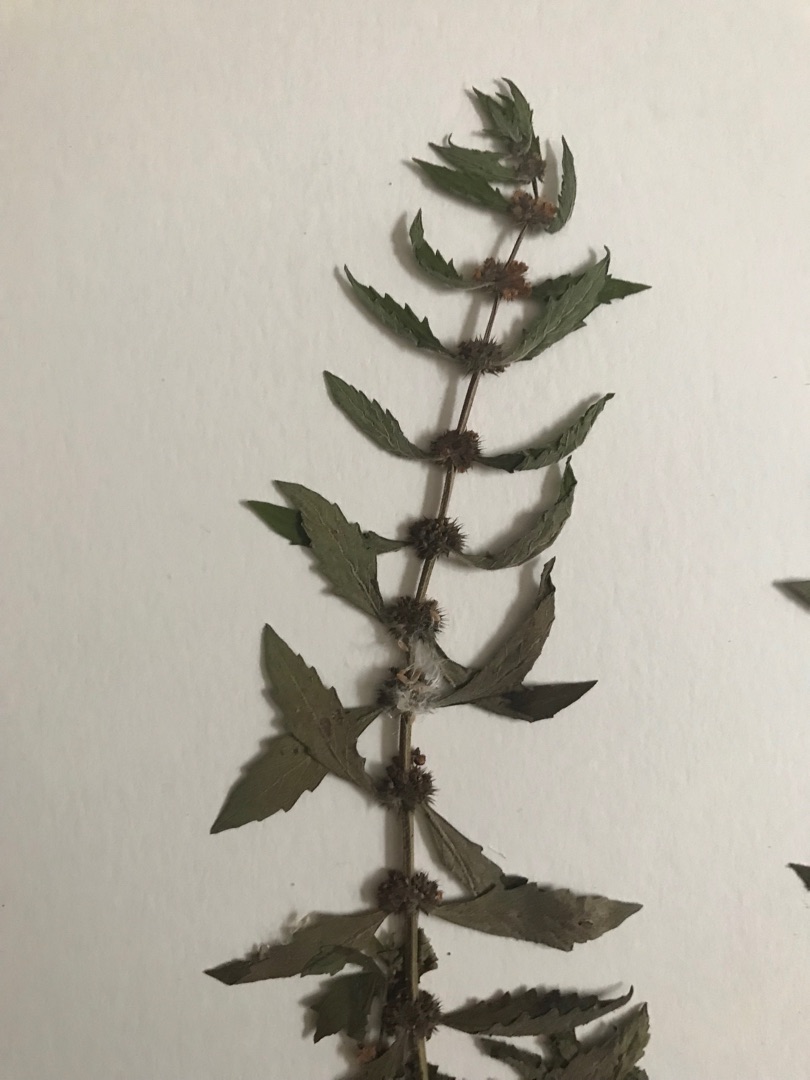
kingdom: Plantae
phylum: Tracheophyta
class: Magnoliopsida
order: Lamiales
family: Lamiaceae
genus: Lycopus
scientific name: Lycopus europaeus
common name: Sværtevæld
